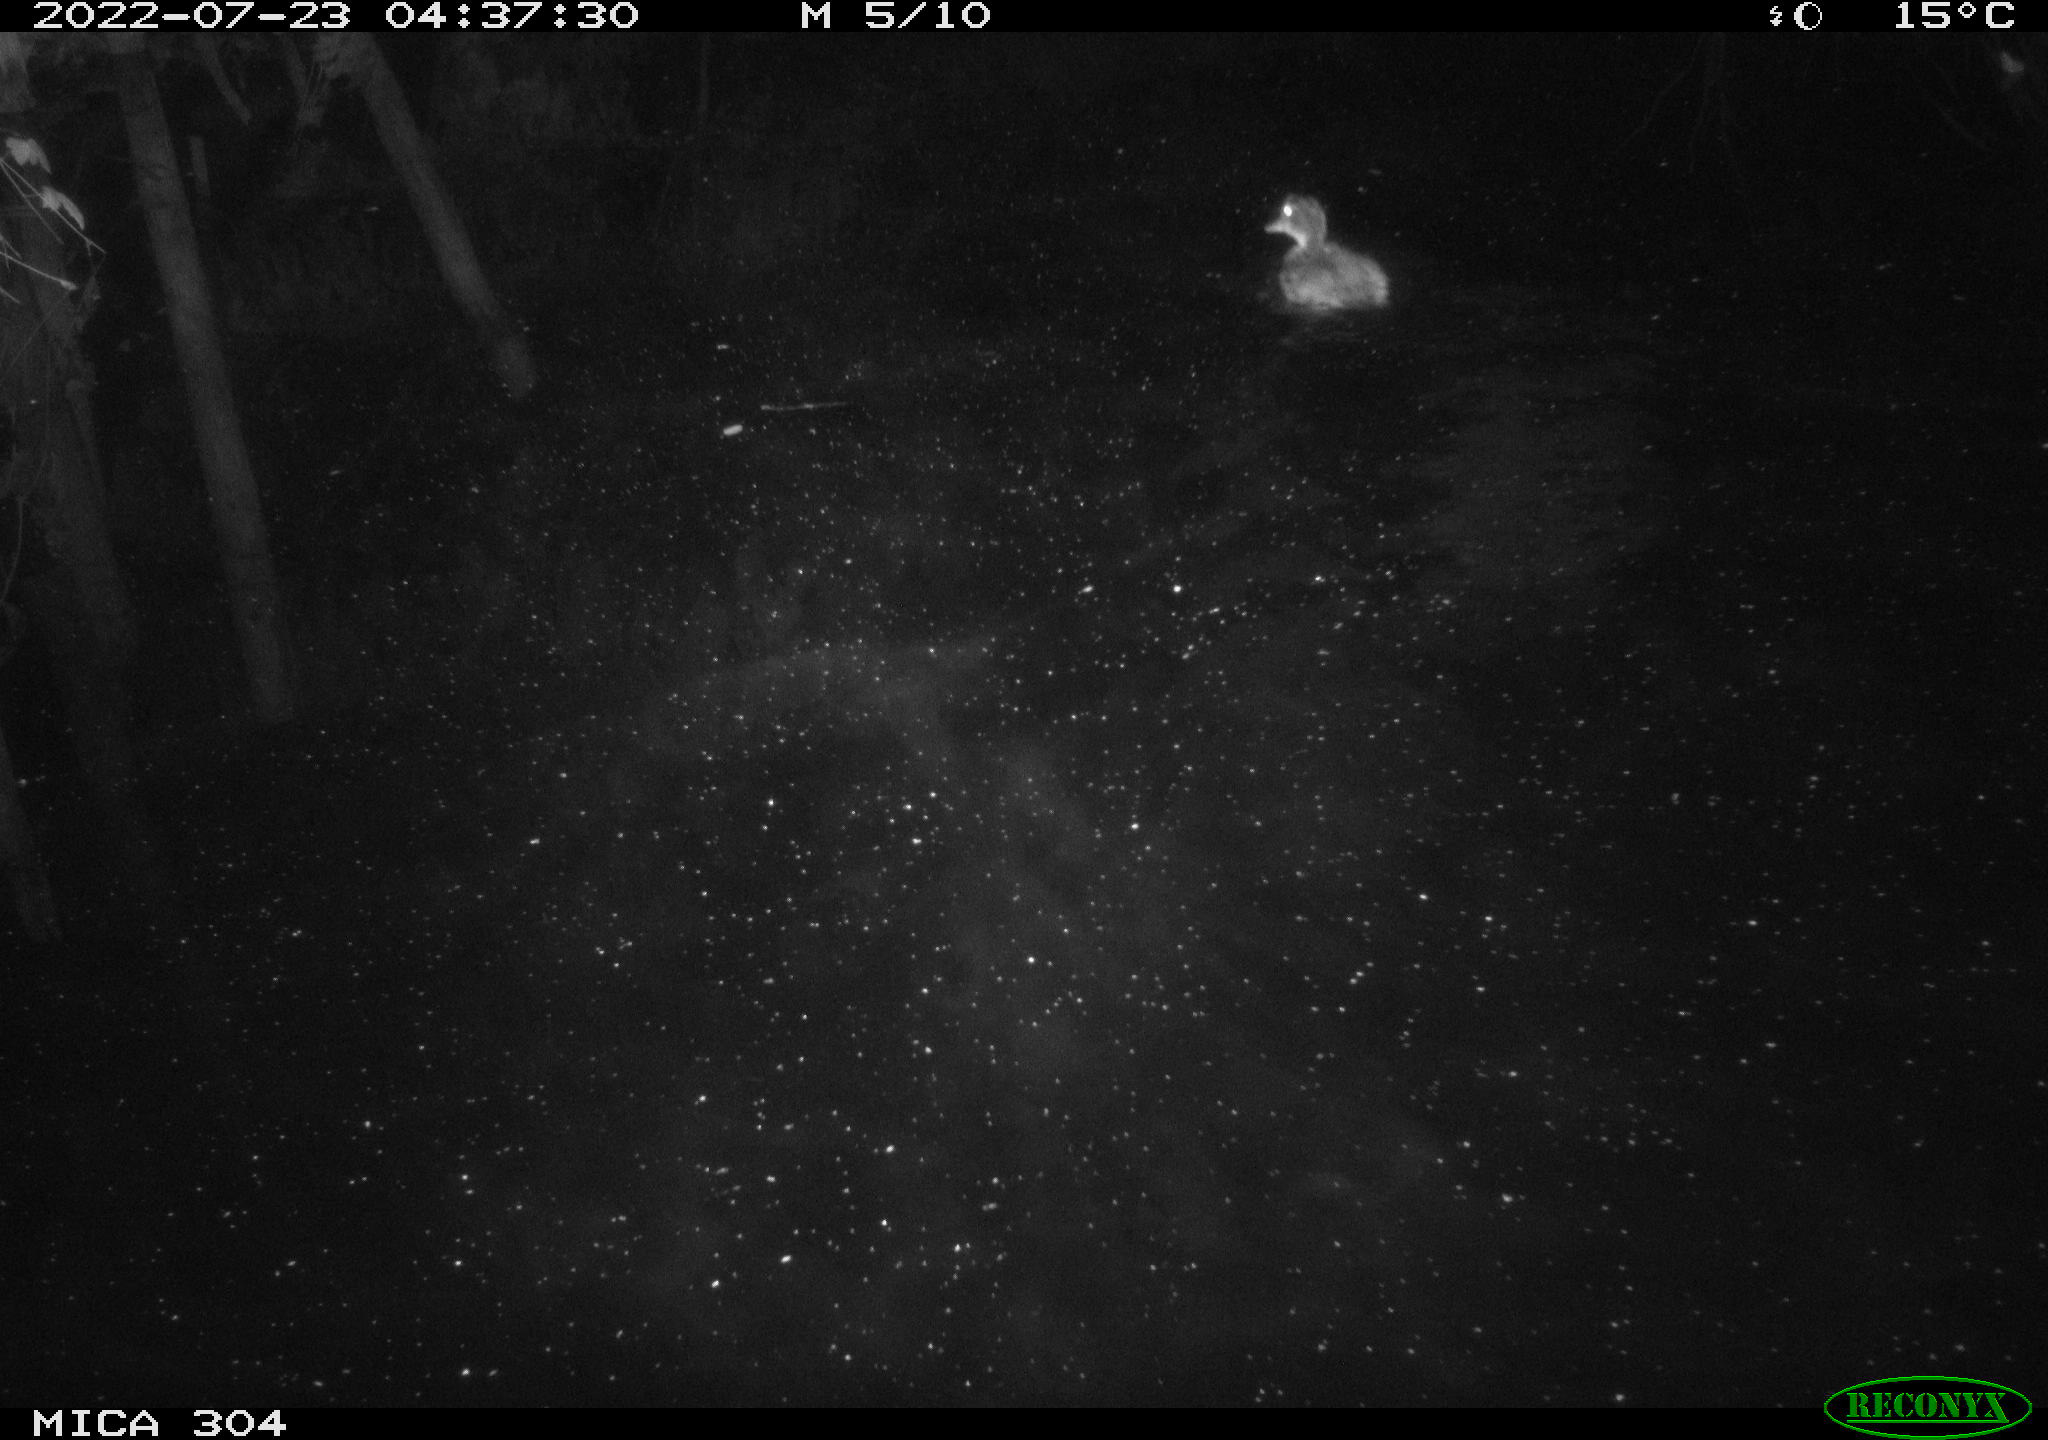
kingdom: Animalia
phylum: Chordata
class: Aves
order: Anseriformes
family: Anatidae
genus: Anas
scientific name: Anas platyrhynchos
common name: Mallard
